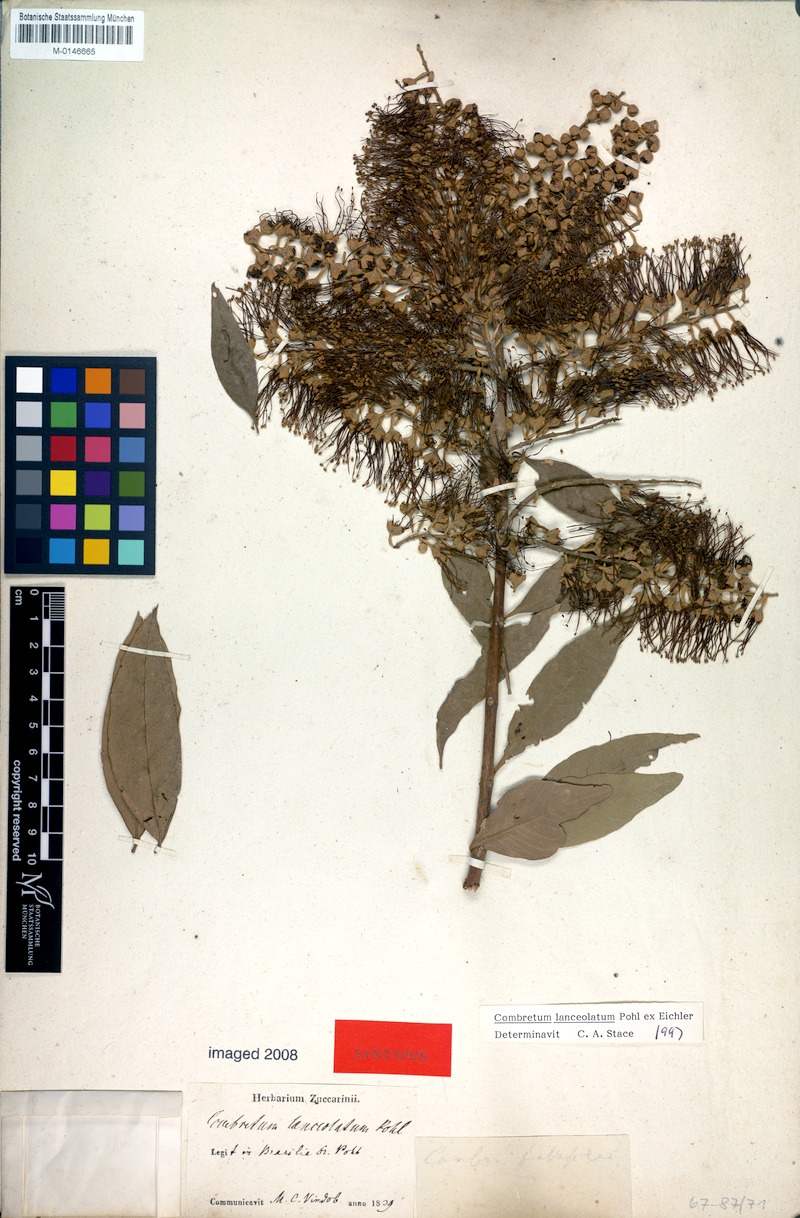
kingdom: Plantae
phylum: Tracheophyta
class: Magnoliopsida
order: Myrtales
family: Combretaceae
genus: Combretum
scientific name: Combretum lanceolatum
